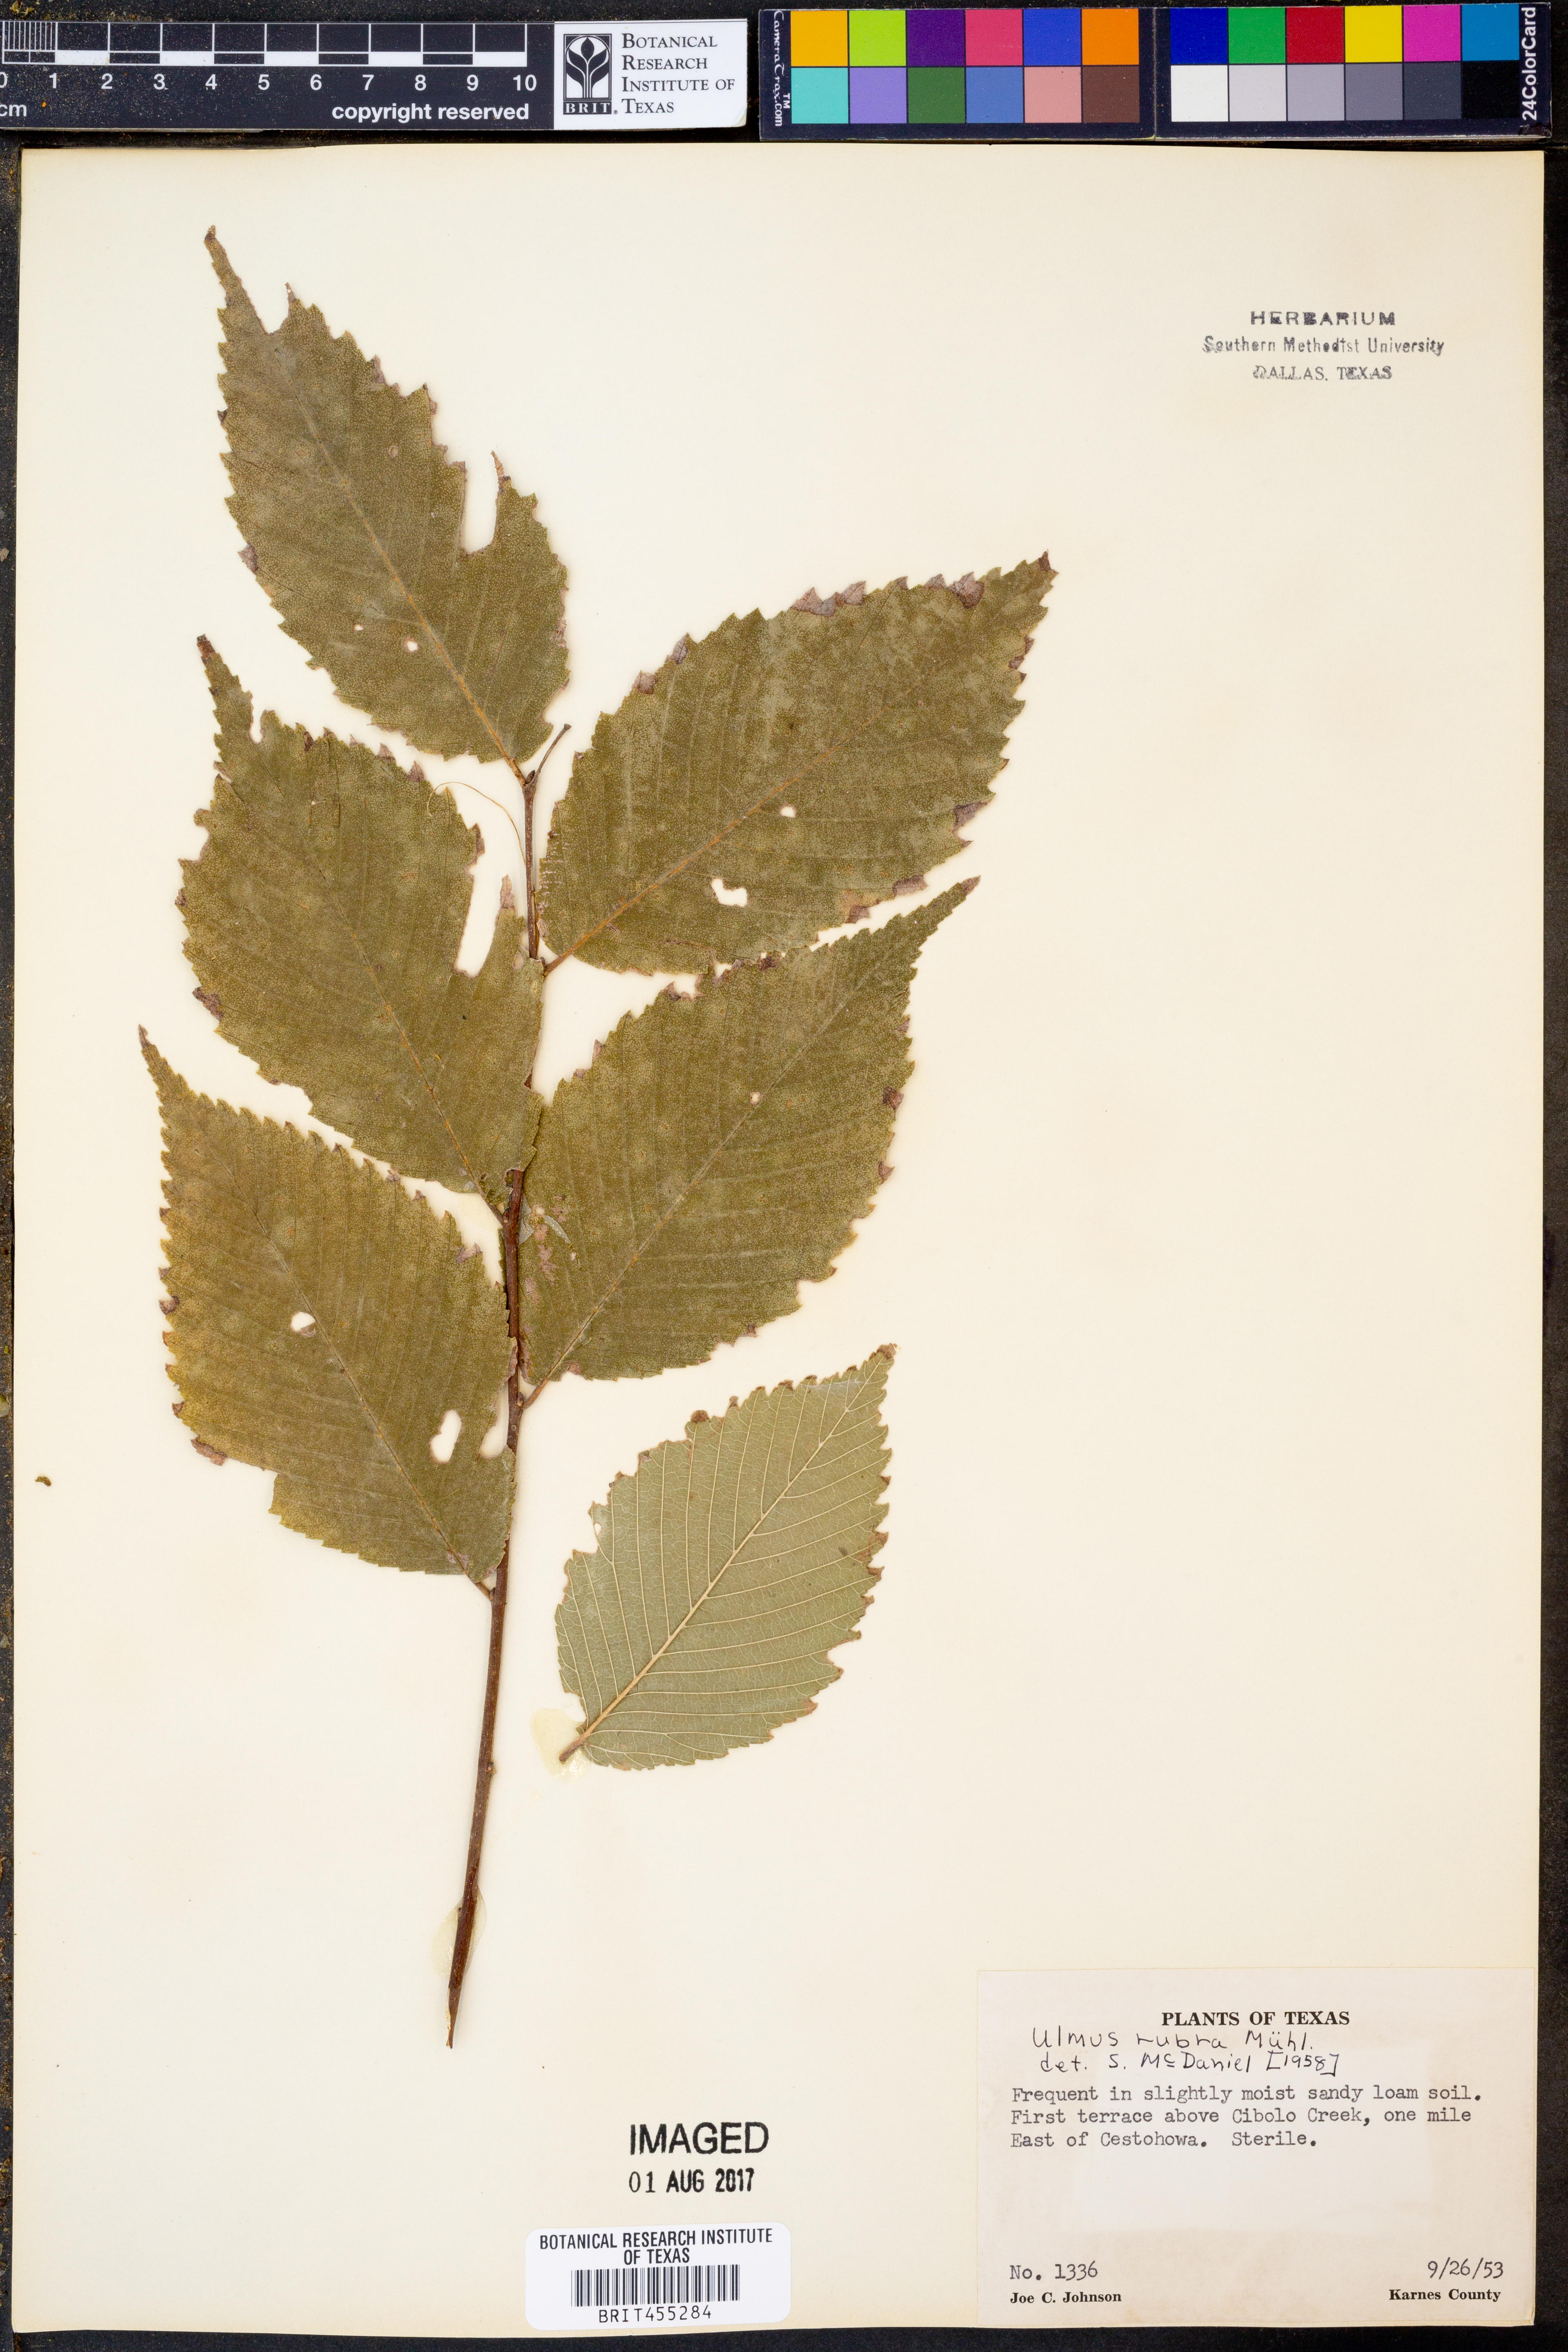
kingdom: Plantae
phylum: Tracheophyta
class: Magnoliopsida
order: Rosales
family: Ulmaceae
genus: Ulmus
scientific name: Ulmus rubra
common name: Slippery elm
